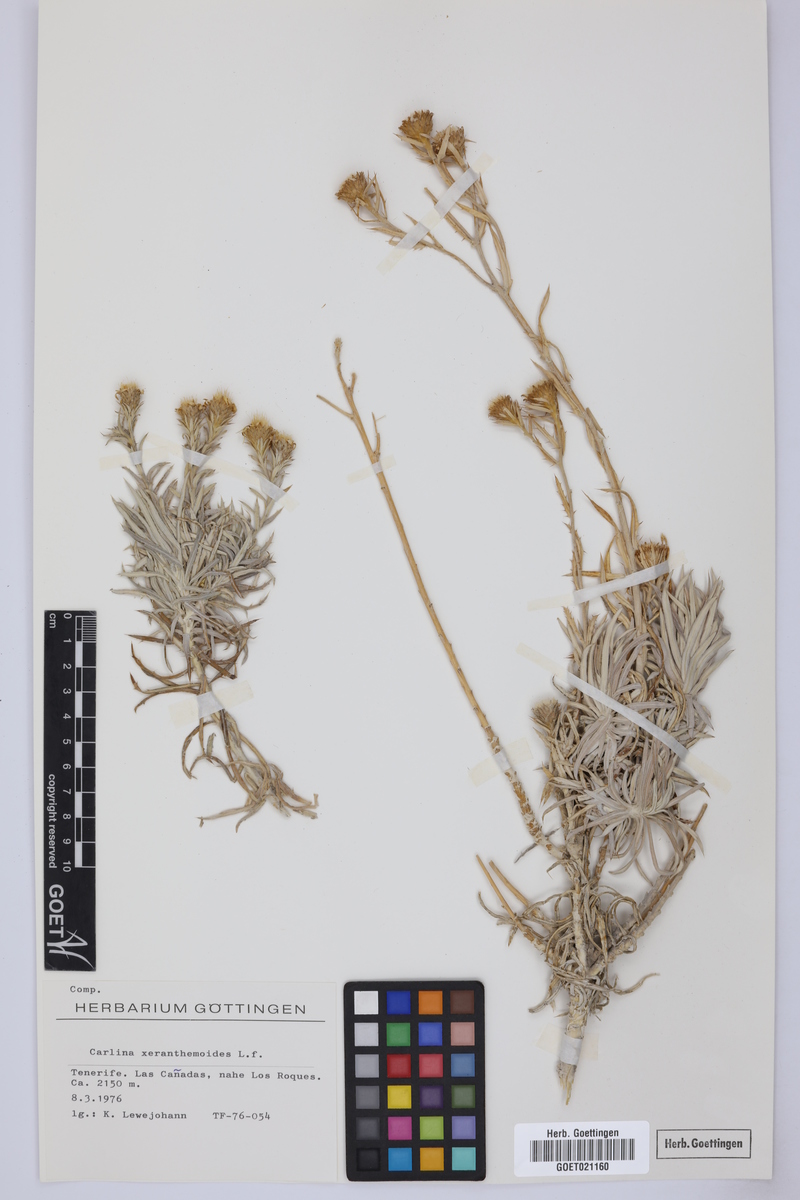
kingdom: Plantae
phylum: Tracheophyta
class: Magnoliopsida
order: Asterales
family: Asteraceae
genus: Carlina
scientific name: Carlina xeranthemoides
